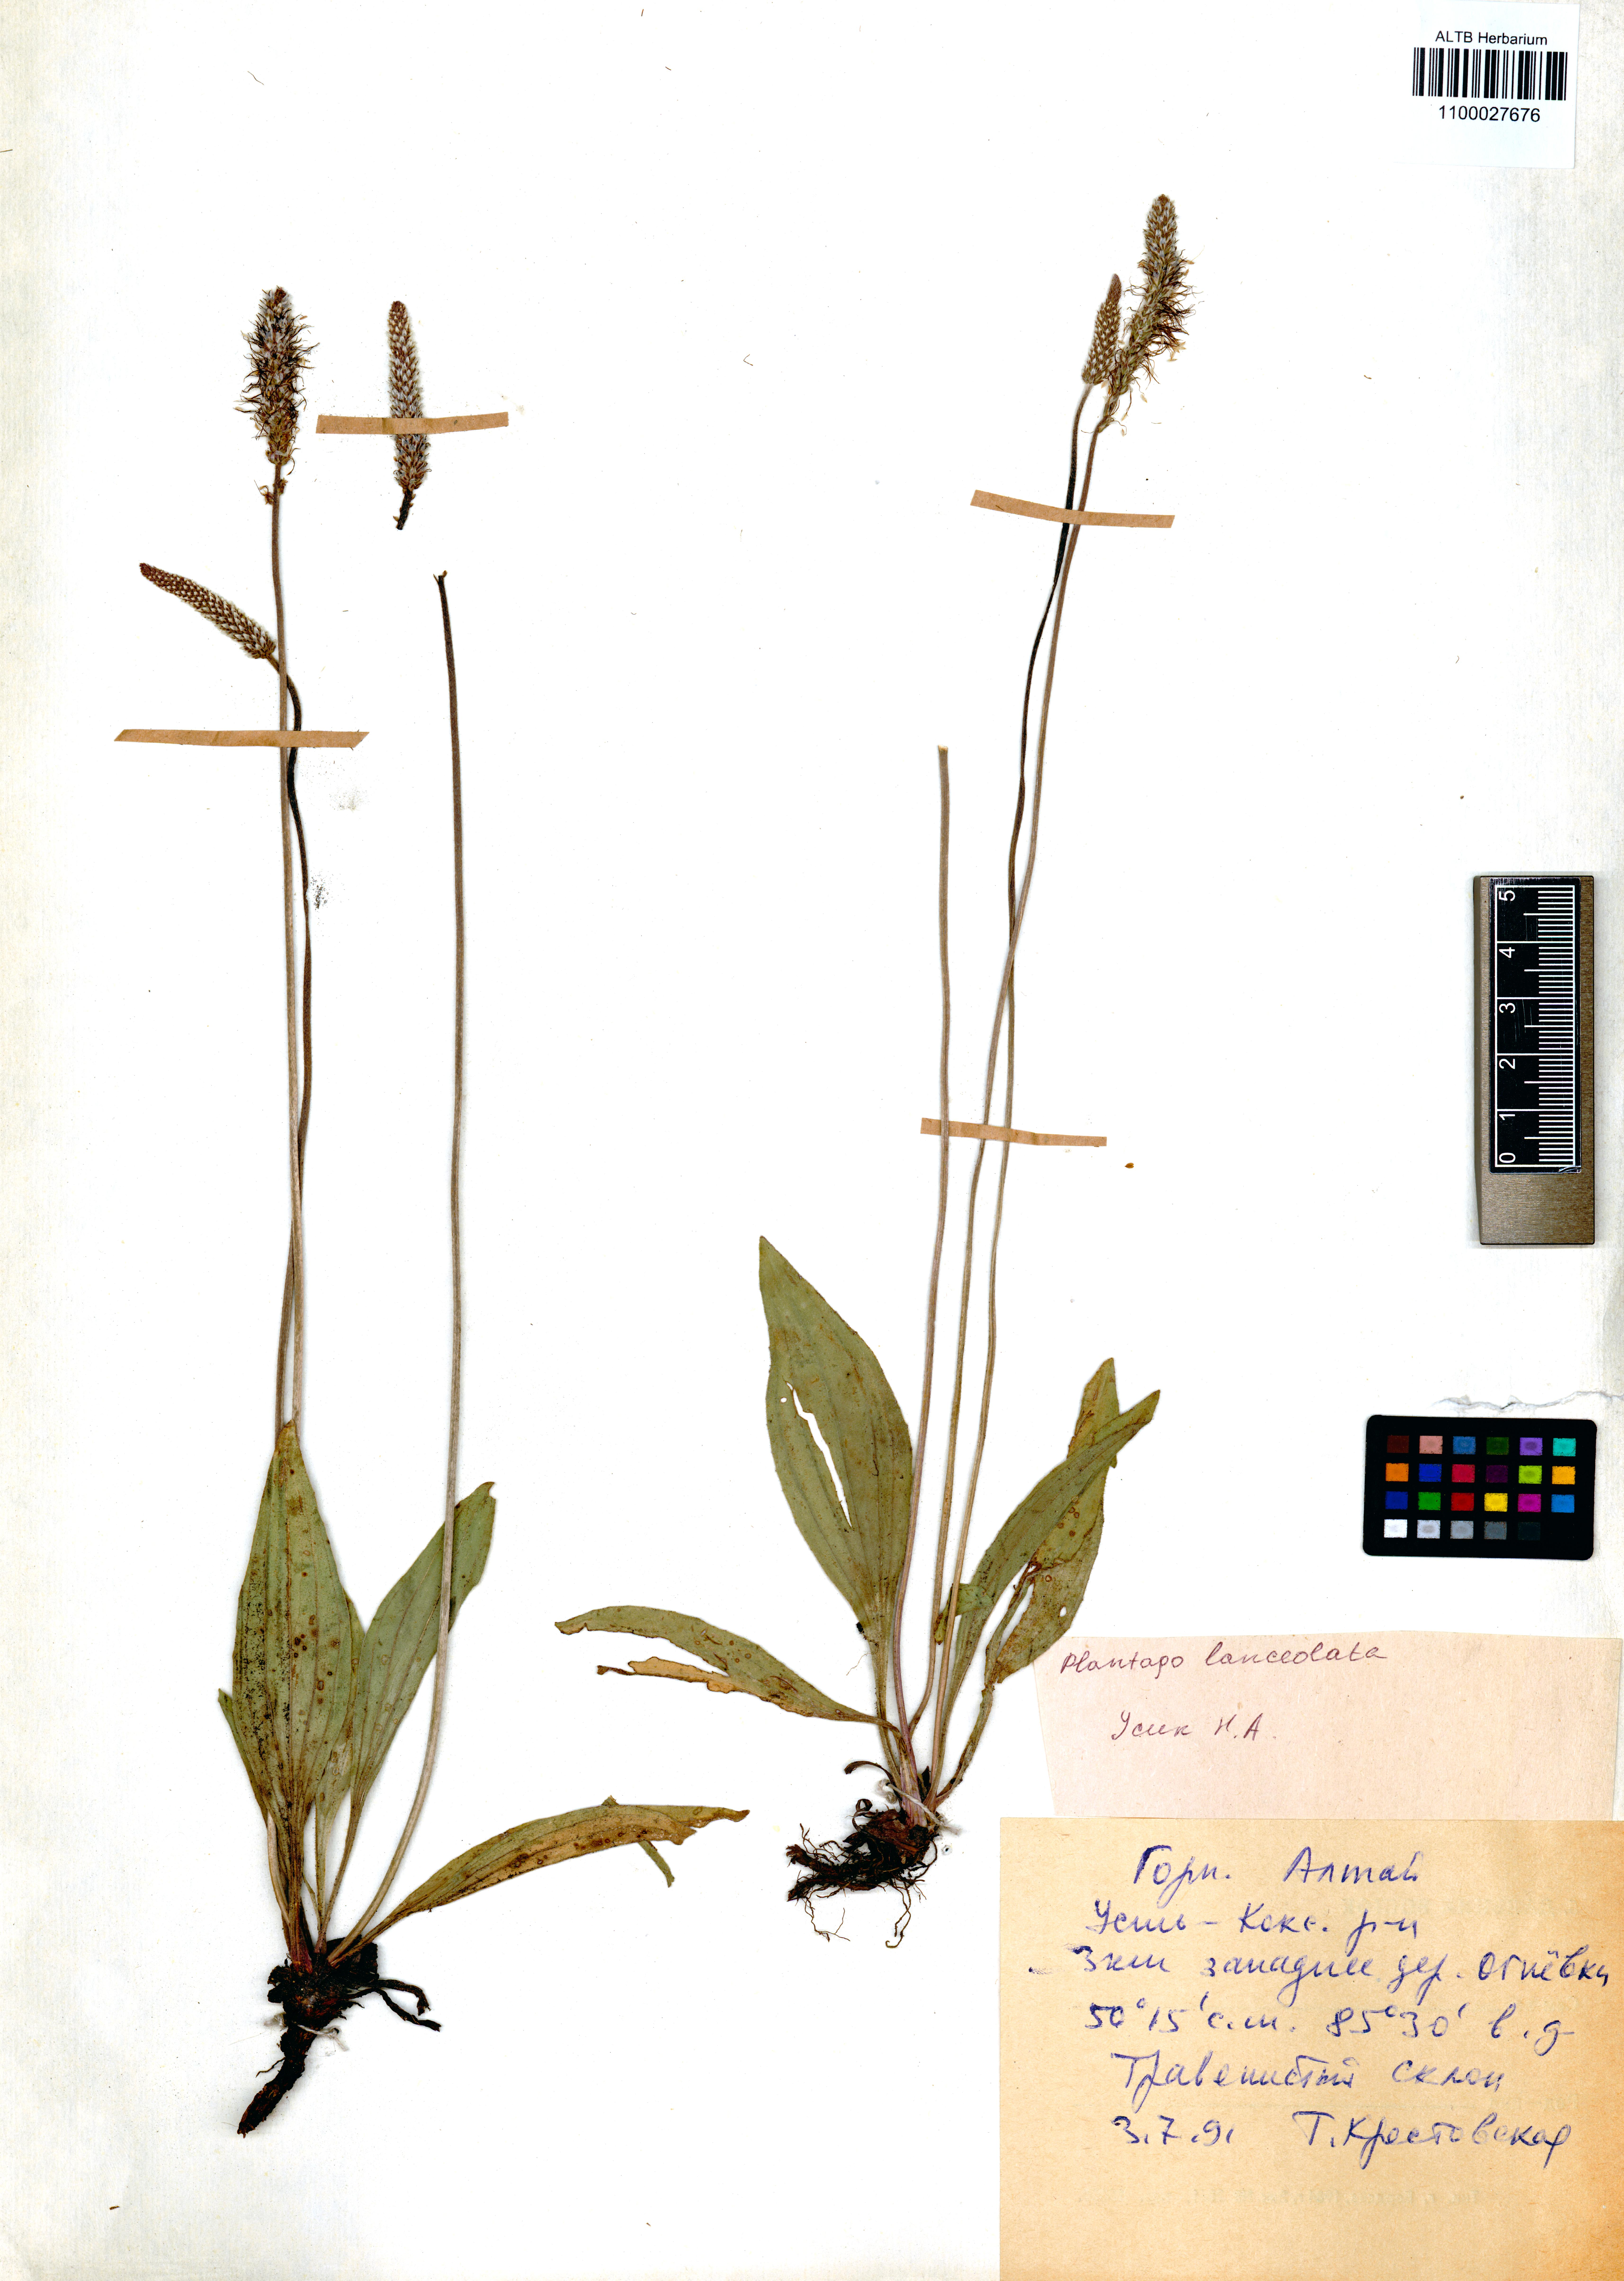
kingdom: Plantae
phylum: Tracheophyta
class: Magnoliopsida
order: Lamiales
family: Plantaginaceae
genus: Plantago
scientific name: Plantago lanceolata
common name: Ribwort plantain
